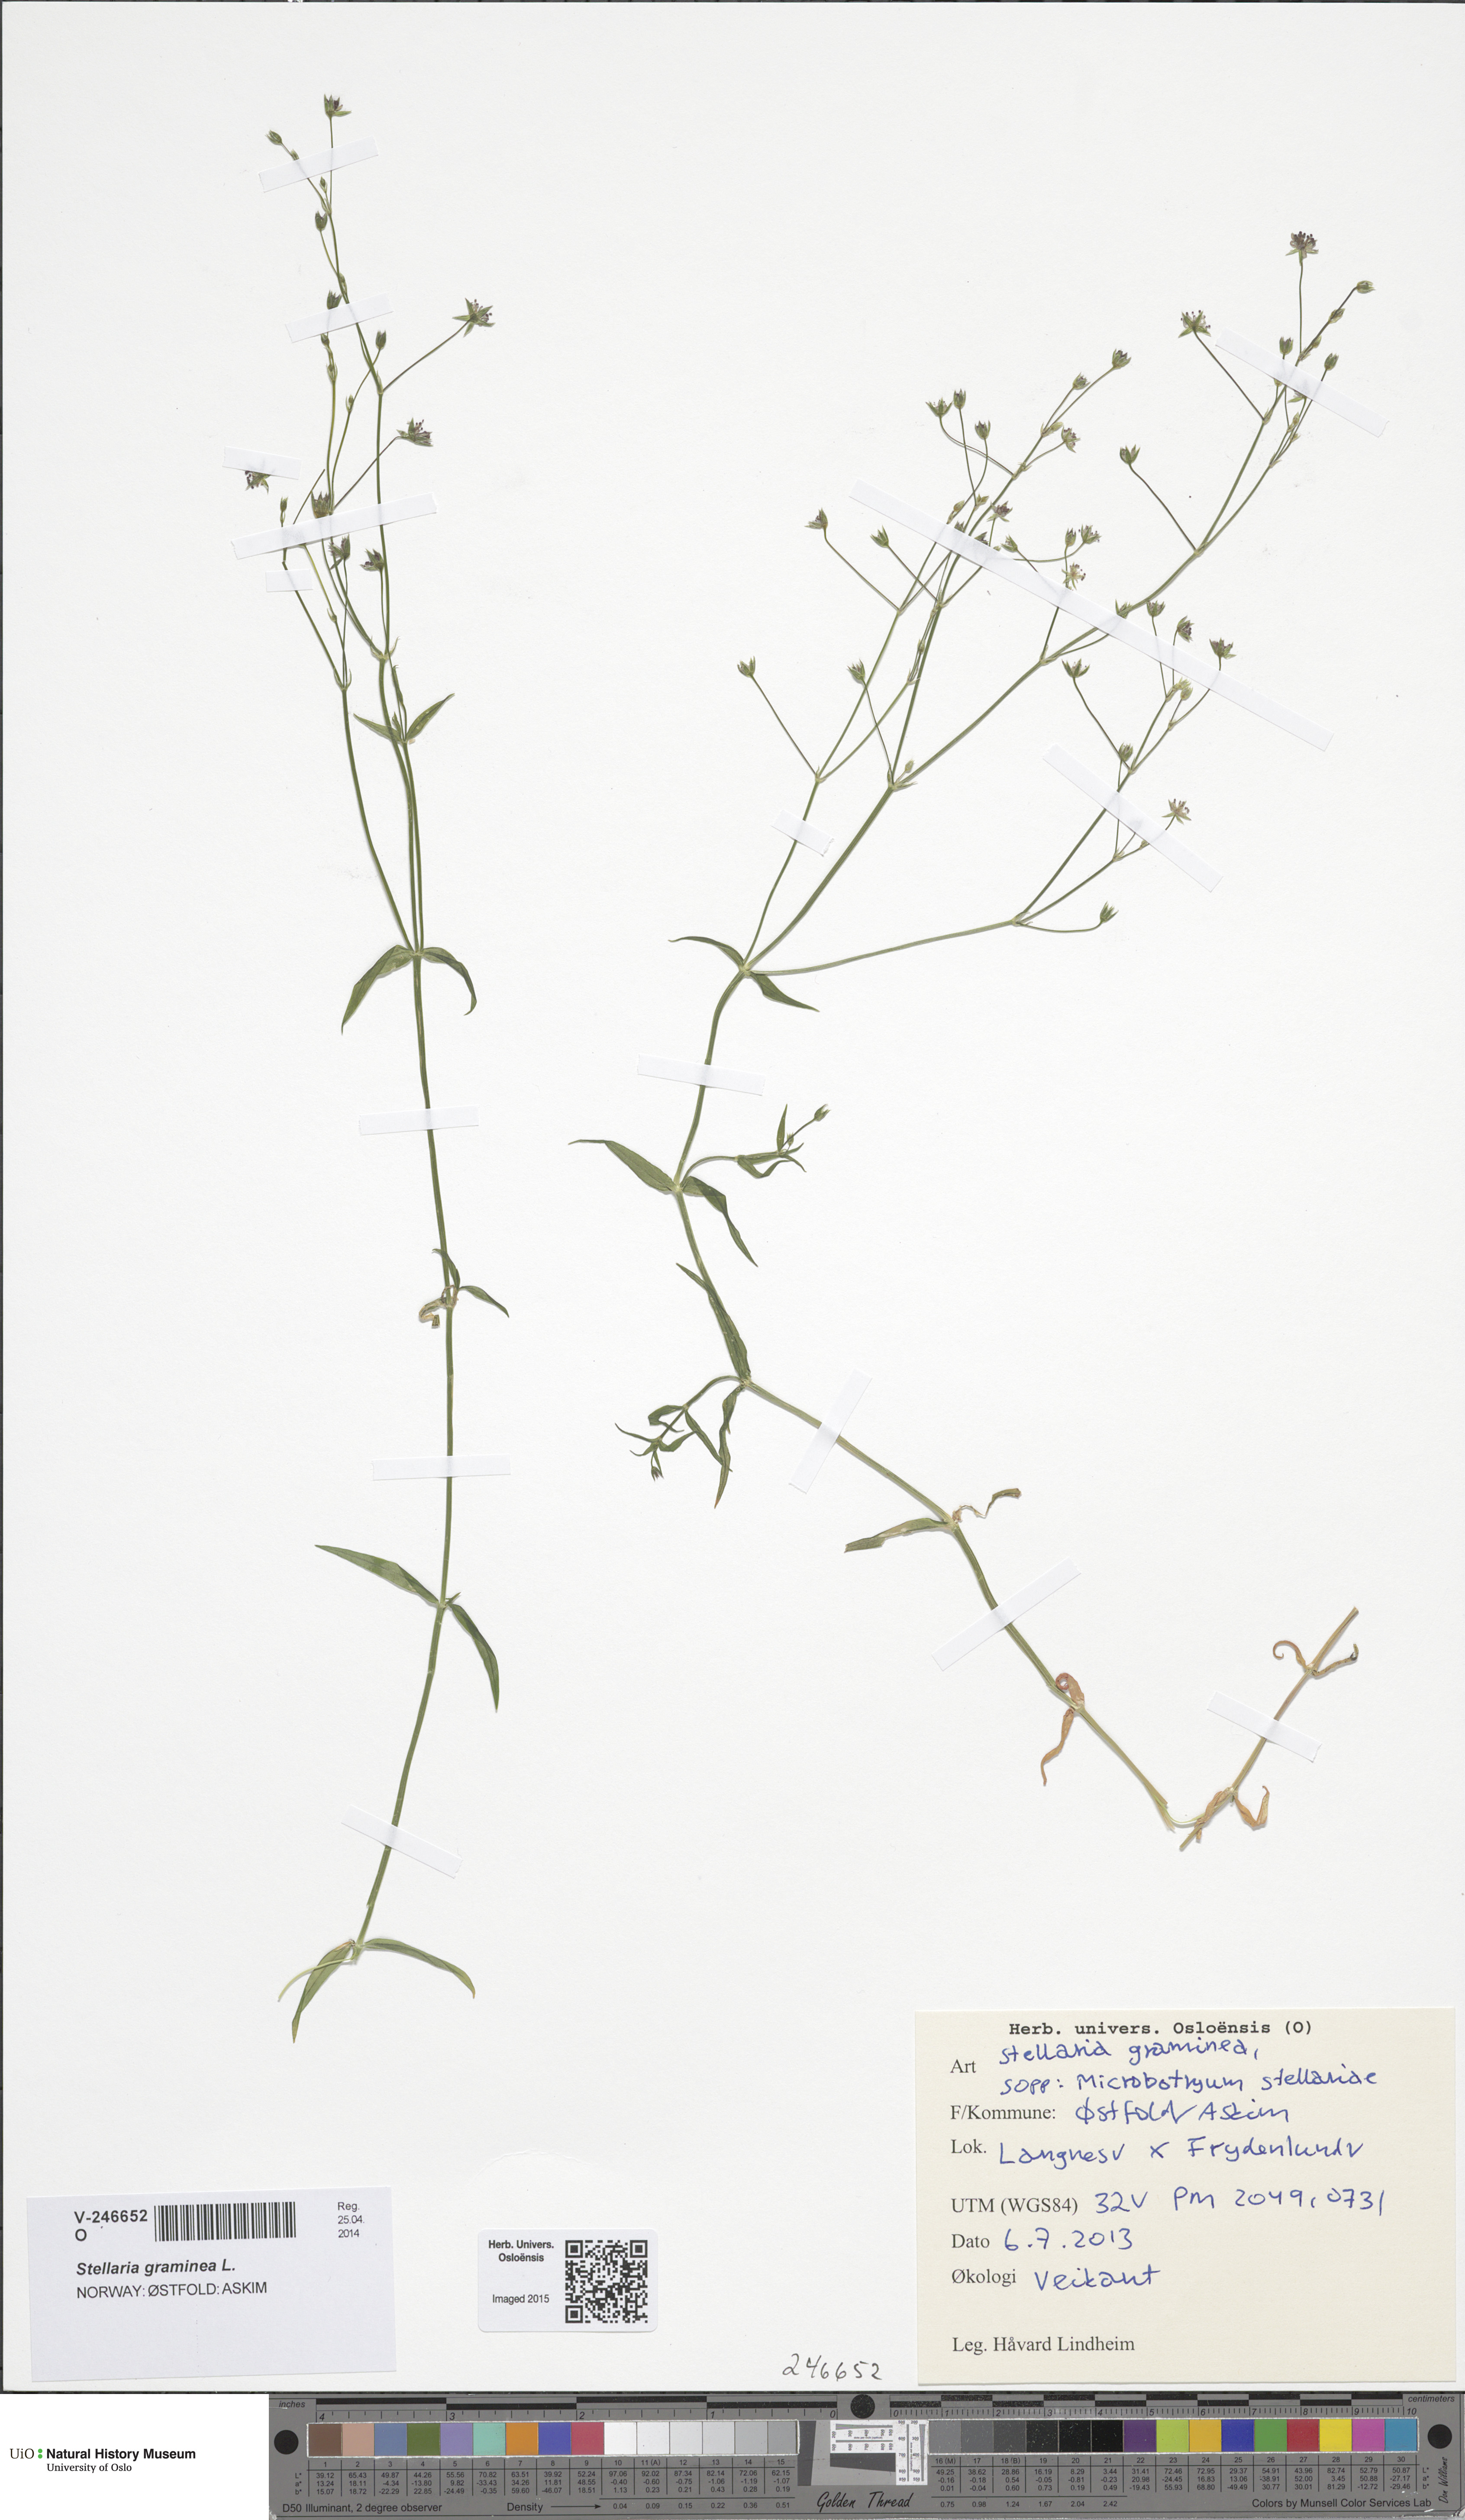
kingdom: Plantae
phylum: Tracheophyta
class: Magnoliopsida
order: Caryophyllales
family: Caryophyllaceae
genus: Stellaria
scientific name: Stellaria graminea
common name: Grass-like starwort
